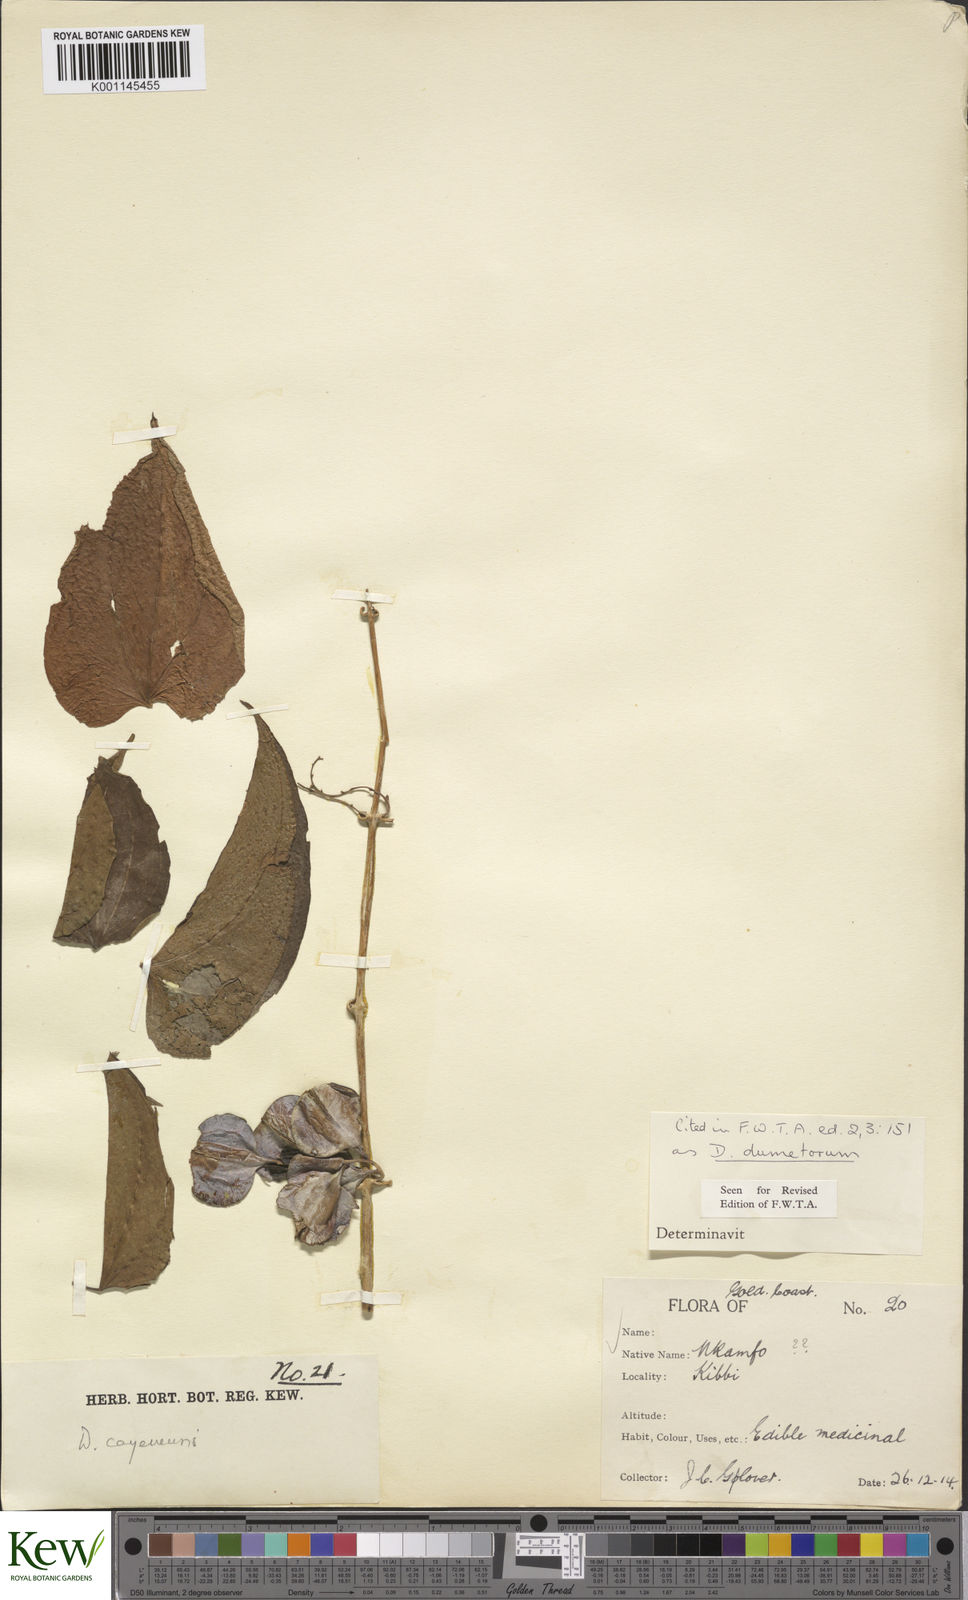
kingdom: Plantae
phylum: Tracheophyta
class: Liliopsida
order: Dioscoreales
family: Dioscoreaceae
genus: Dioscorea
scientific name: Dioscorea dumetorum
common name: African bitter yam
